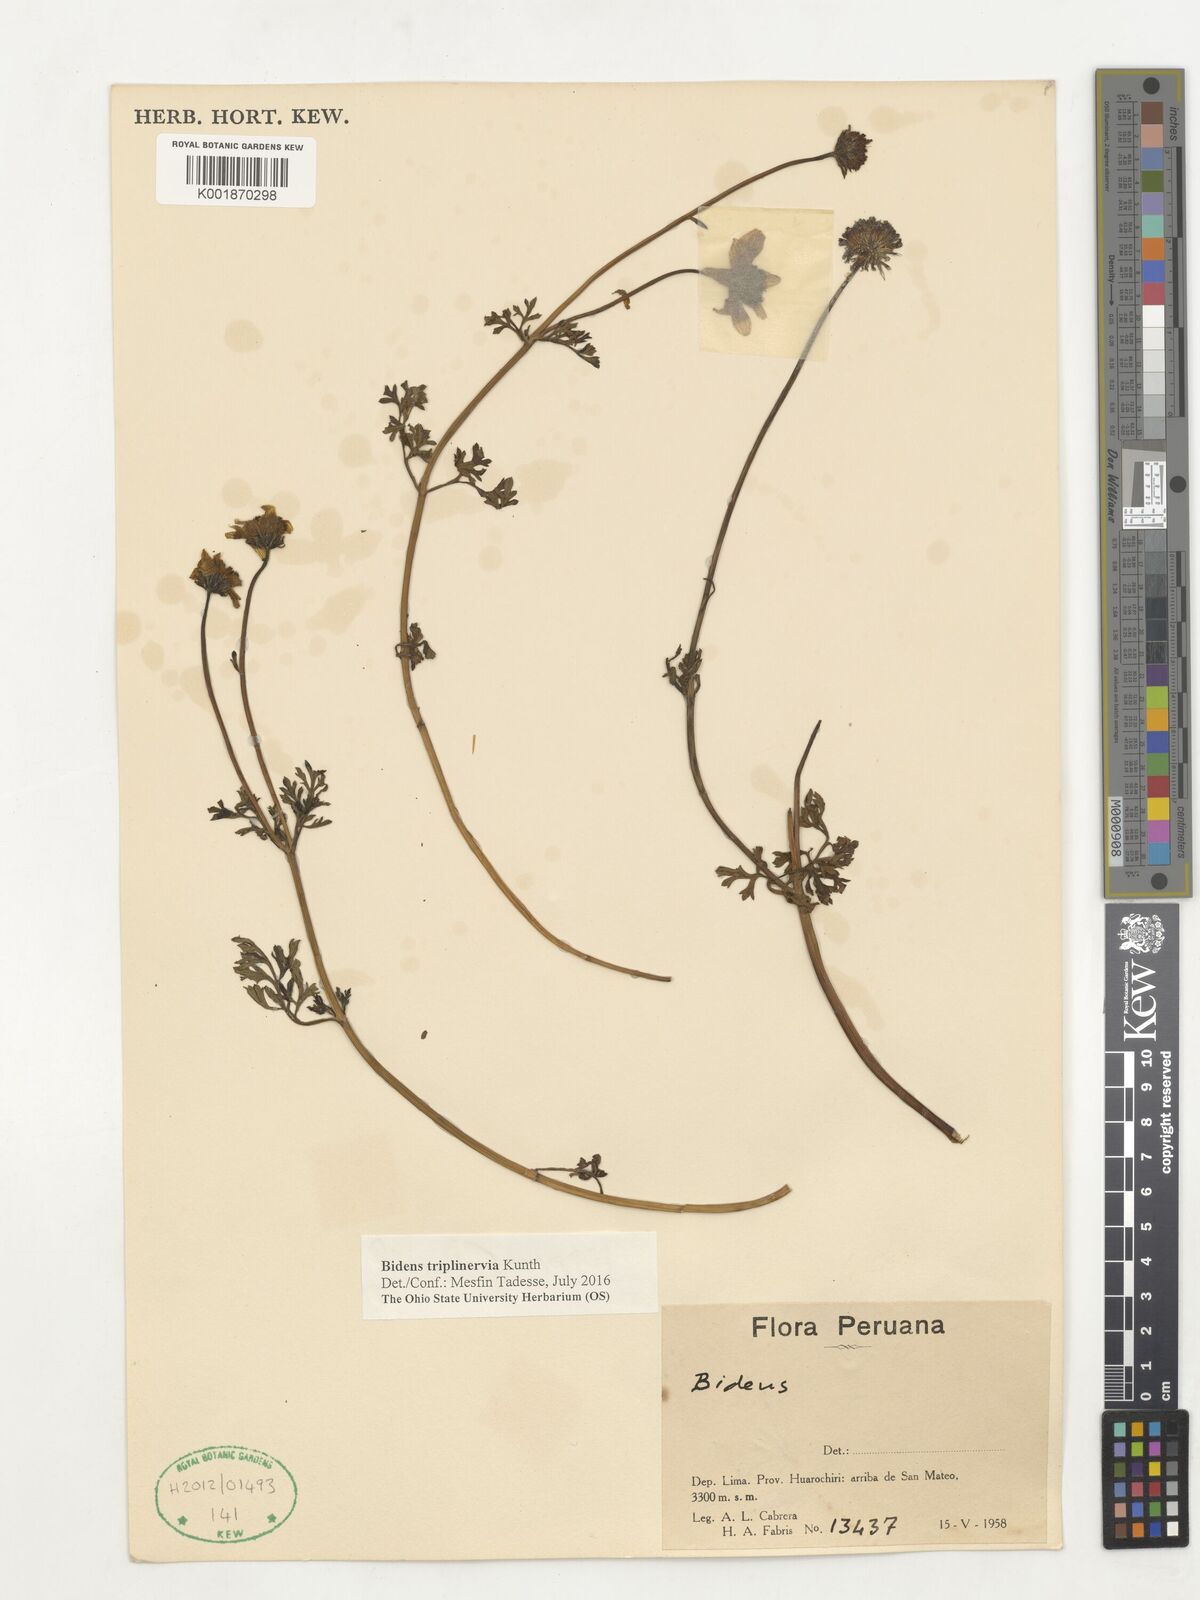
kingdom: Plantae
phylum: Tracheophyta
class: Magnoliopsida
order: Asterales
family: Asteraceae
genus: Bidens
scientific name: Bidens triplinervia
